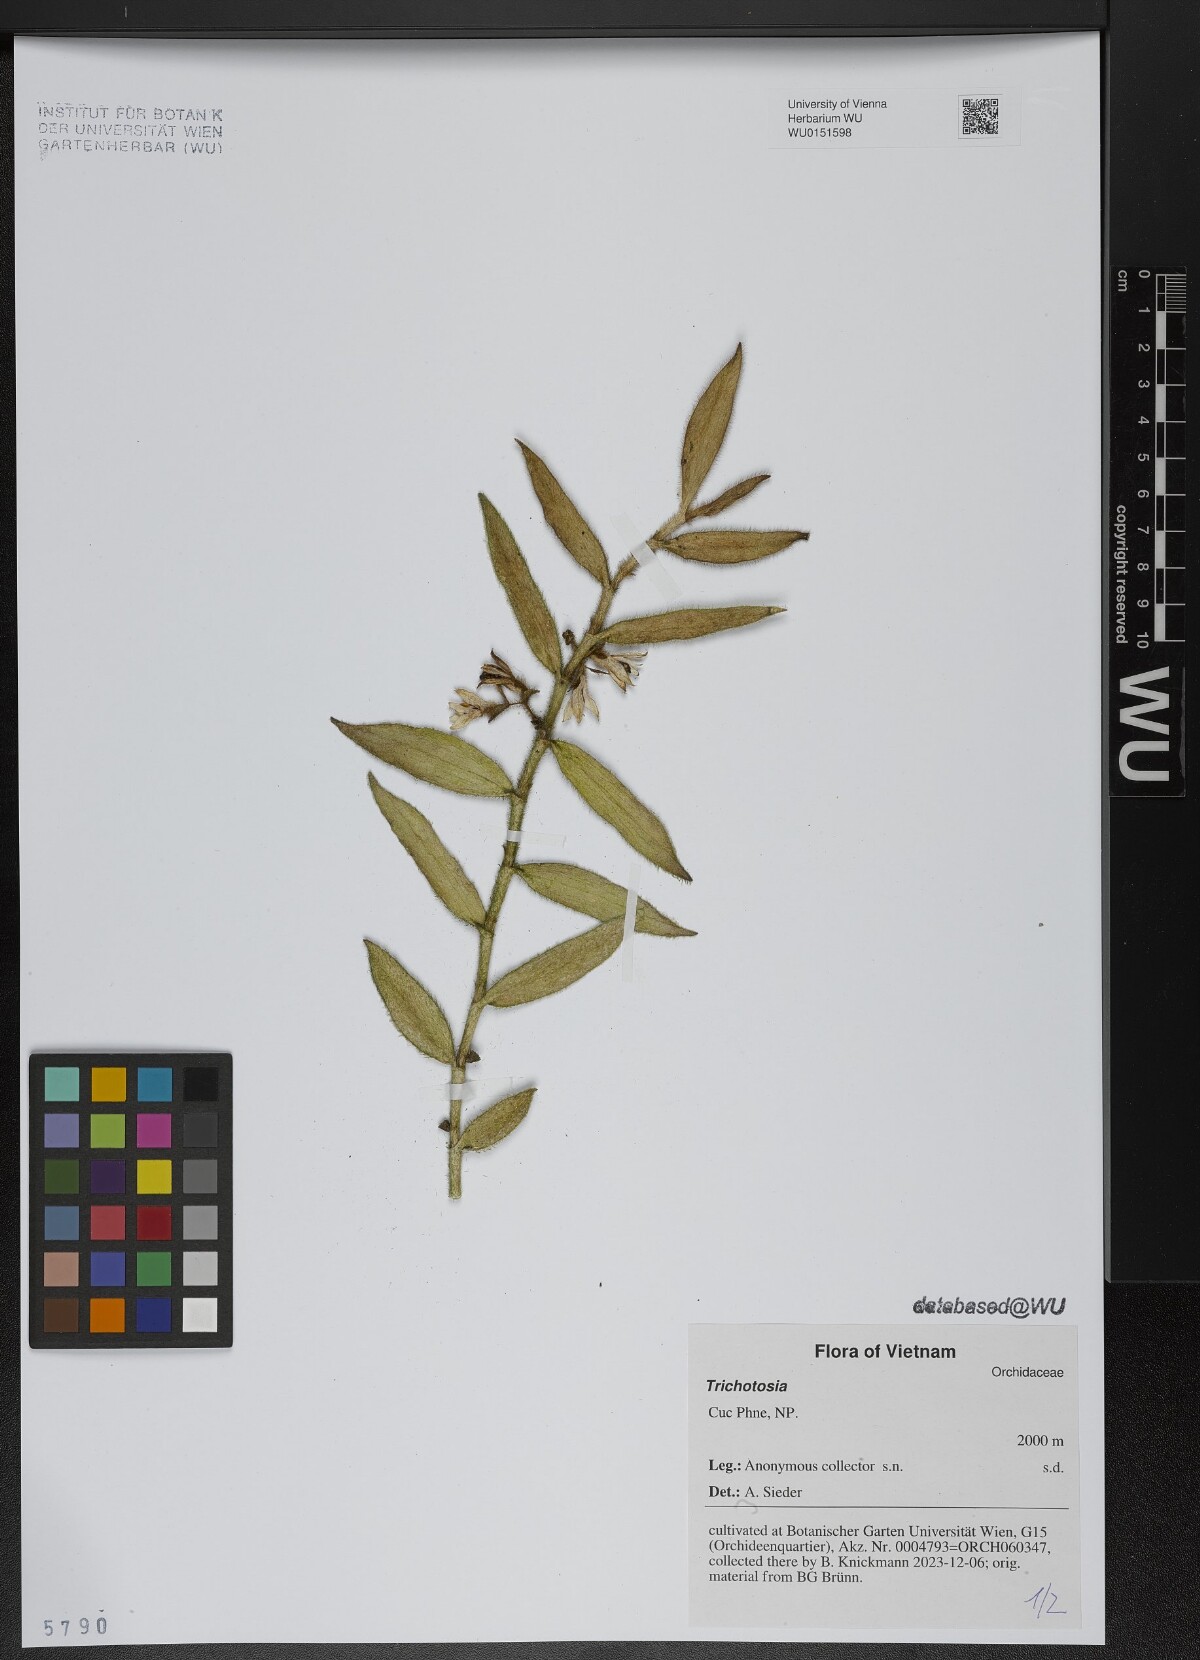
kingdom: Plantae
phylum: Tracheophyta
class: Liliopsida
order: Asparagales
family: Orchidaceae
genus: Trichotosia
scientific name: Trichotosia
